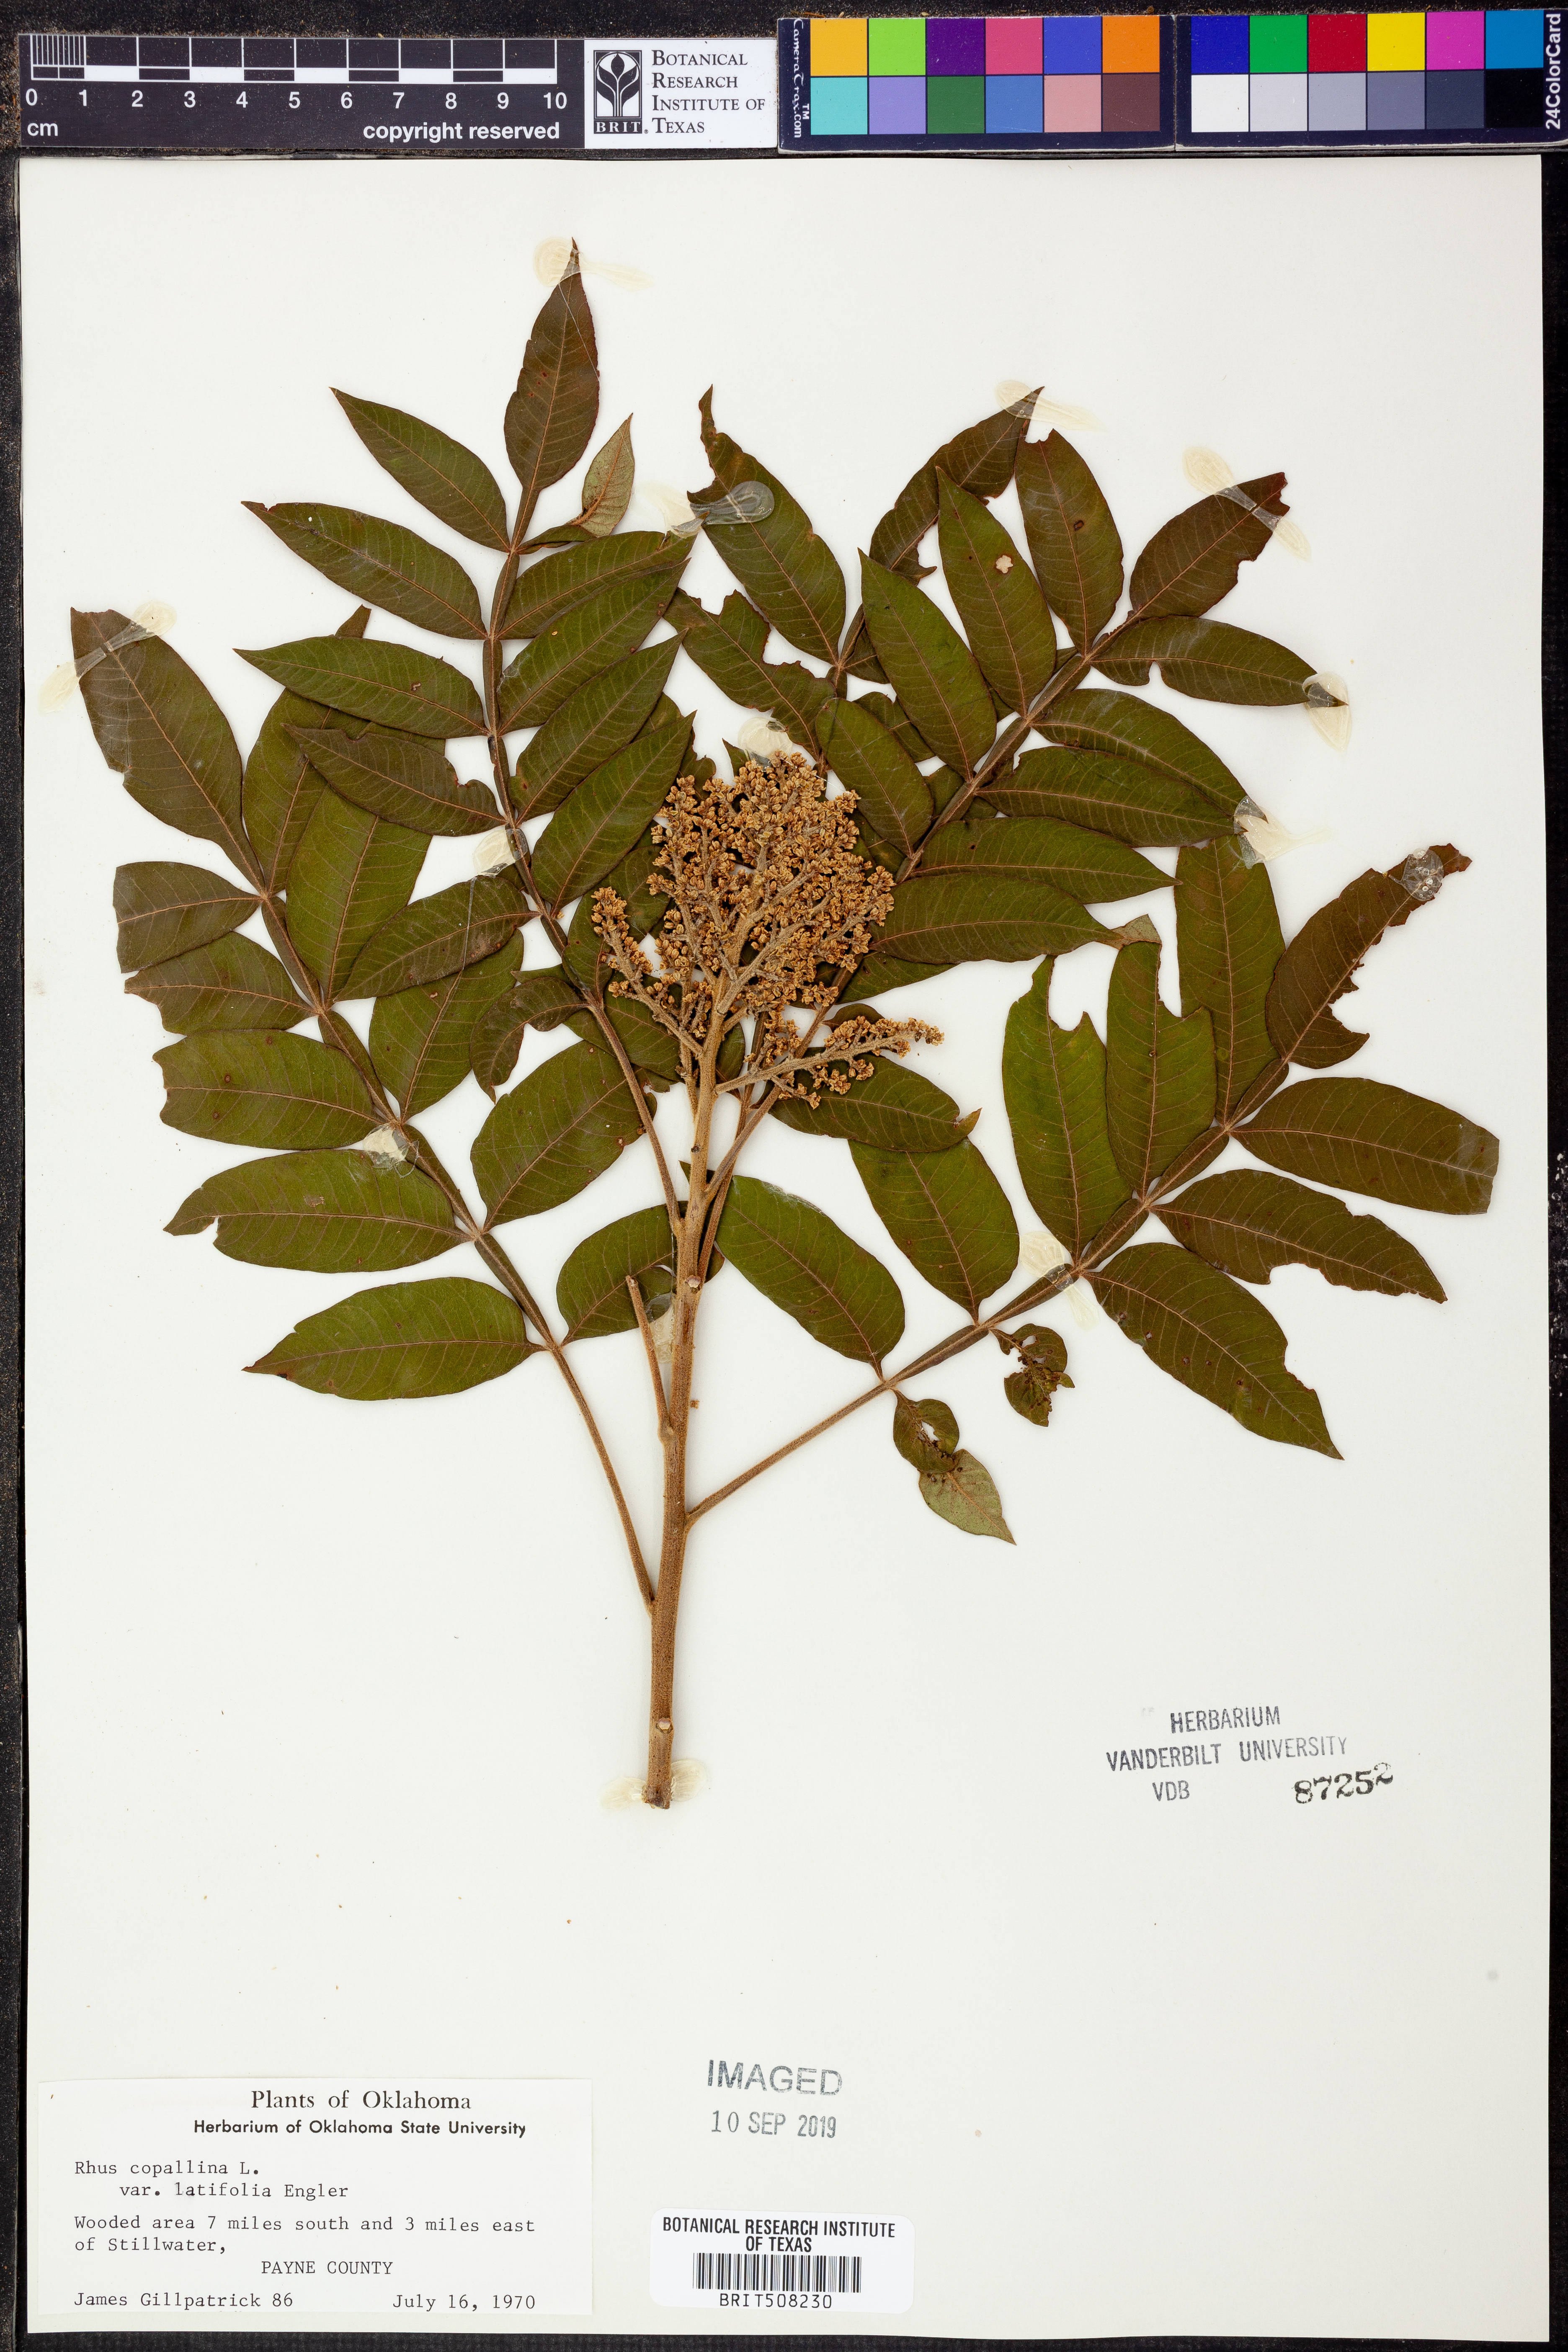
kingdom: Plantae
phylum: Tracheophyta
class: Magnoliopsida
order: Sapindales
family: Anacardiaceae
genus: Rhus
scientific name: Rhus copallina
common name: Shining sumac
